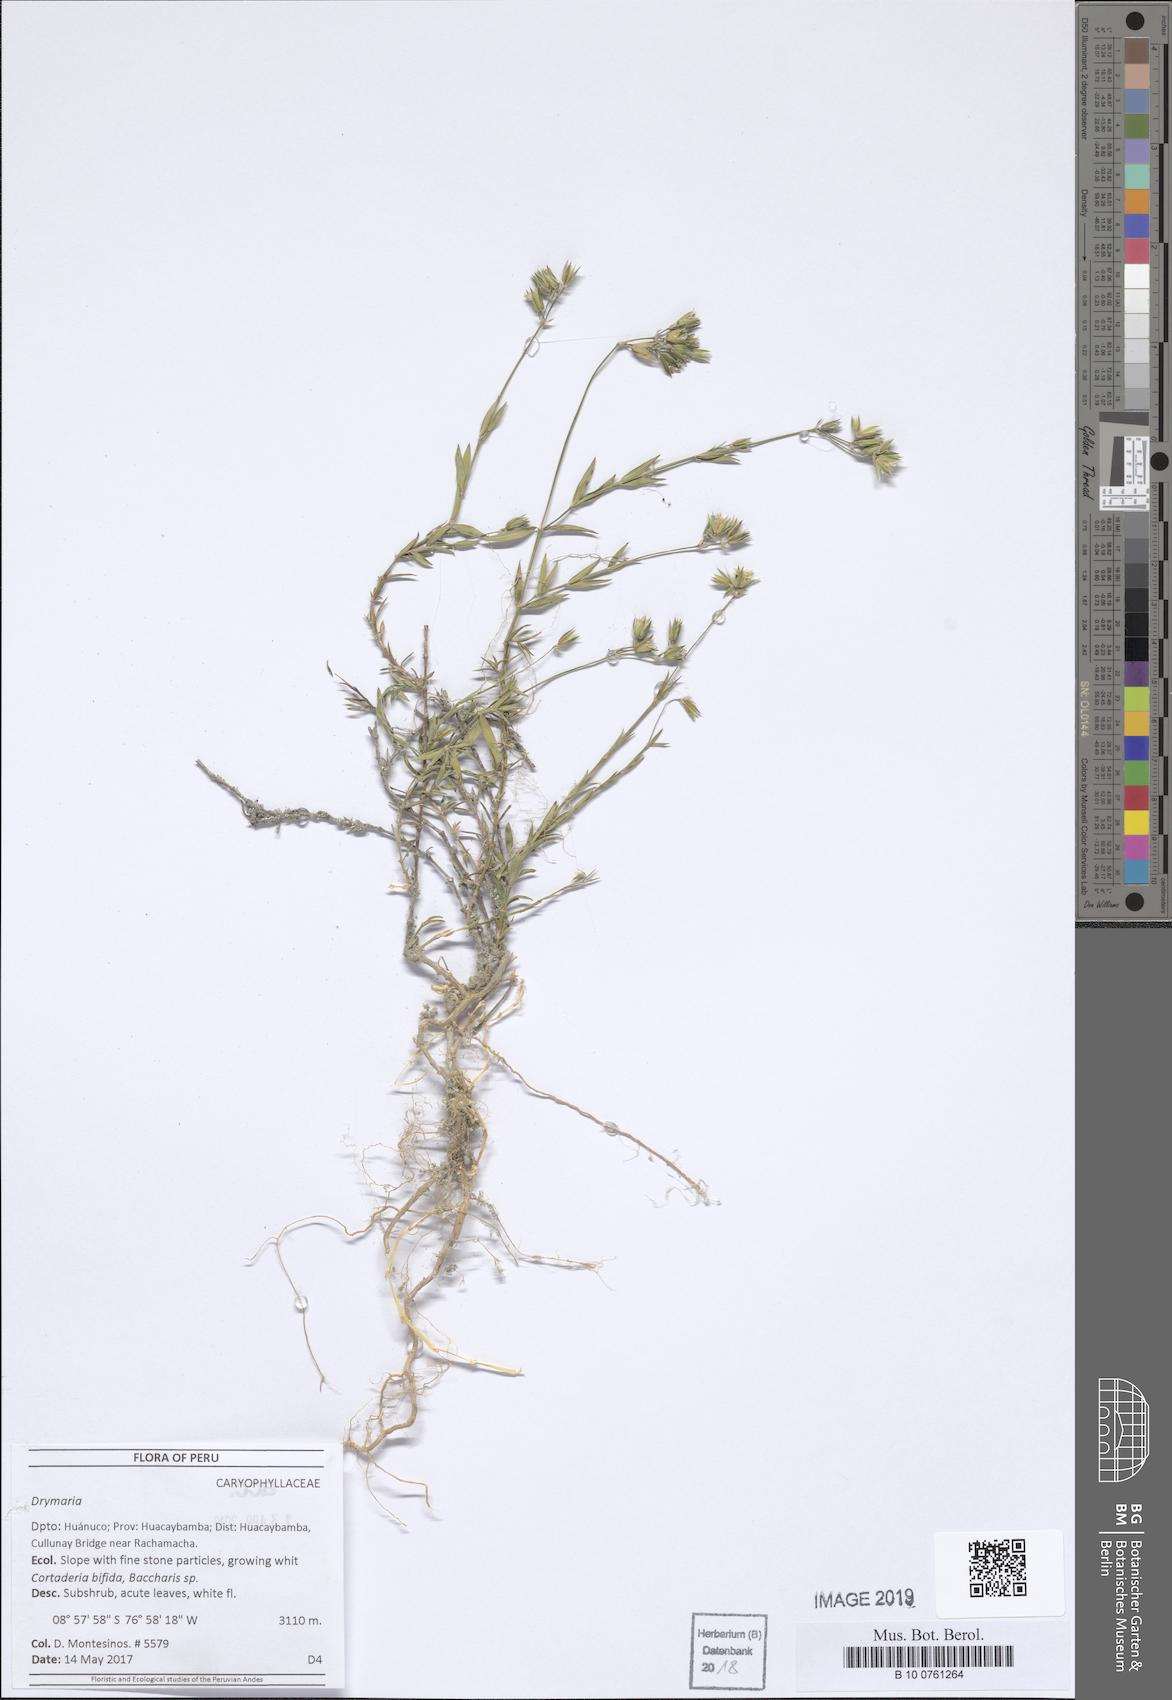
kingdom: Plantae
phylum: Tracheophyta
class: Magnoliopsida
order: Caryophyllales
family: Caryophyllaceae
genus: Drymaria
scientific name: Drymaria
